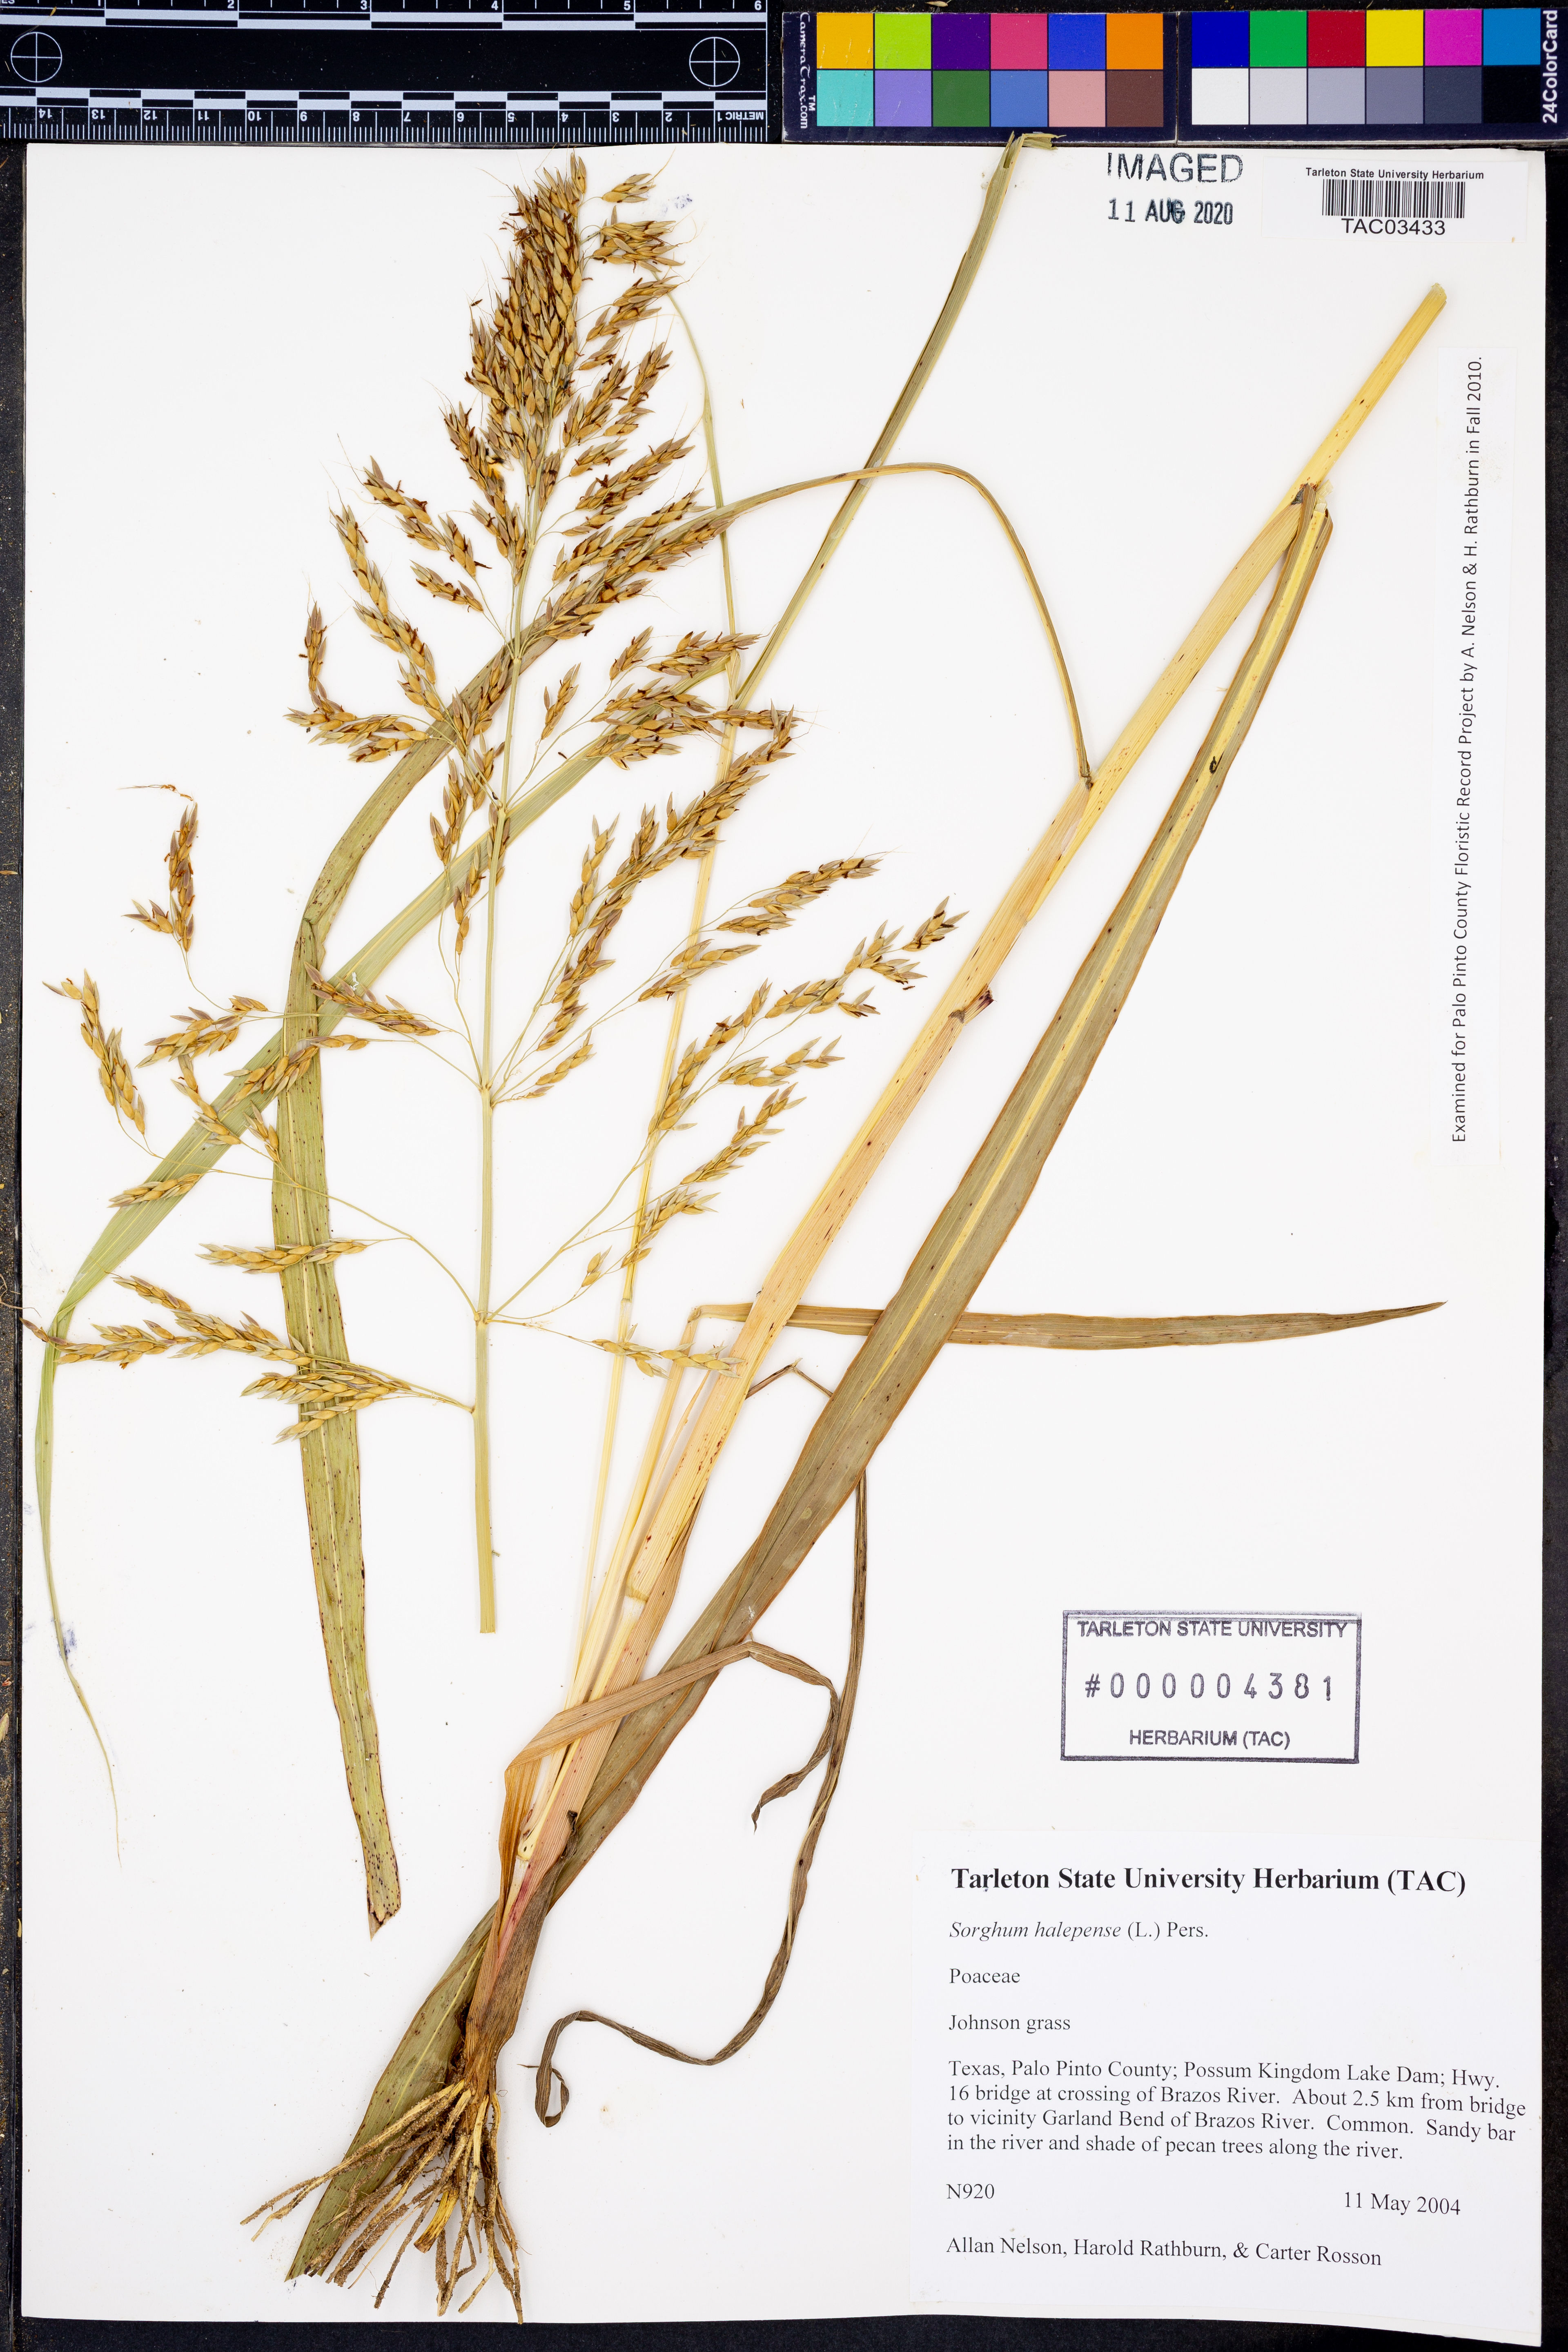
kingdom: Plantae
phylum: Tracheophyta
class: Liliopsida
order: Poales
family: Poaceae
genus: Sorghum
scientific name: Sorghum halepense
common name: Johnson-grass
